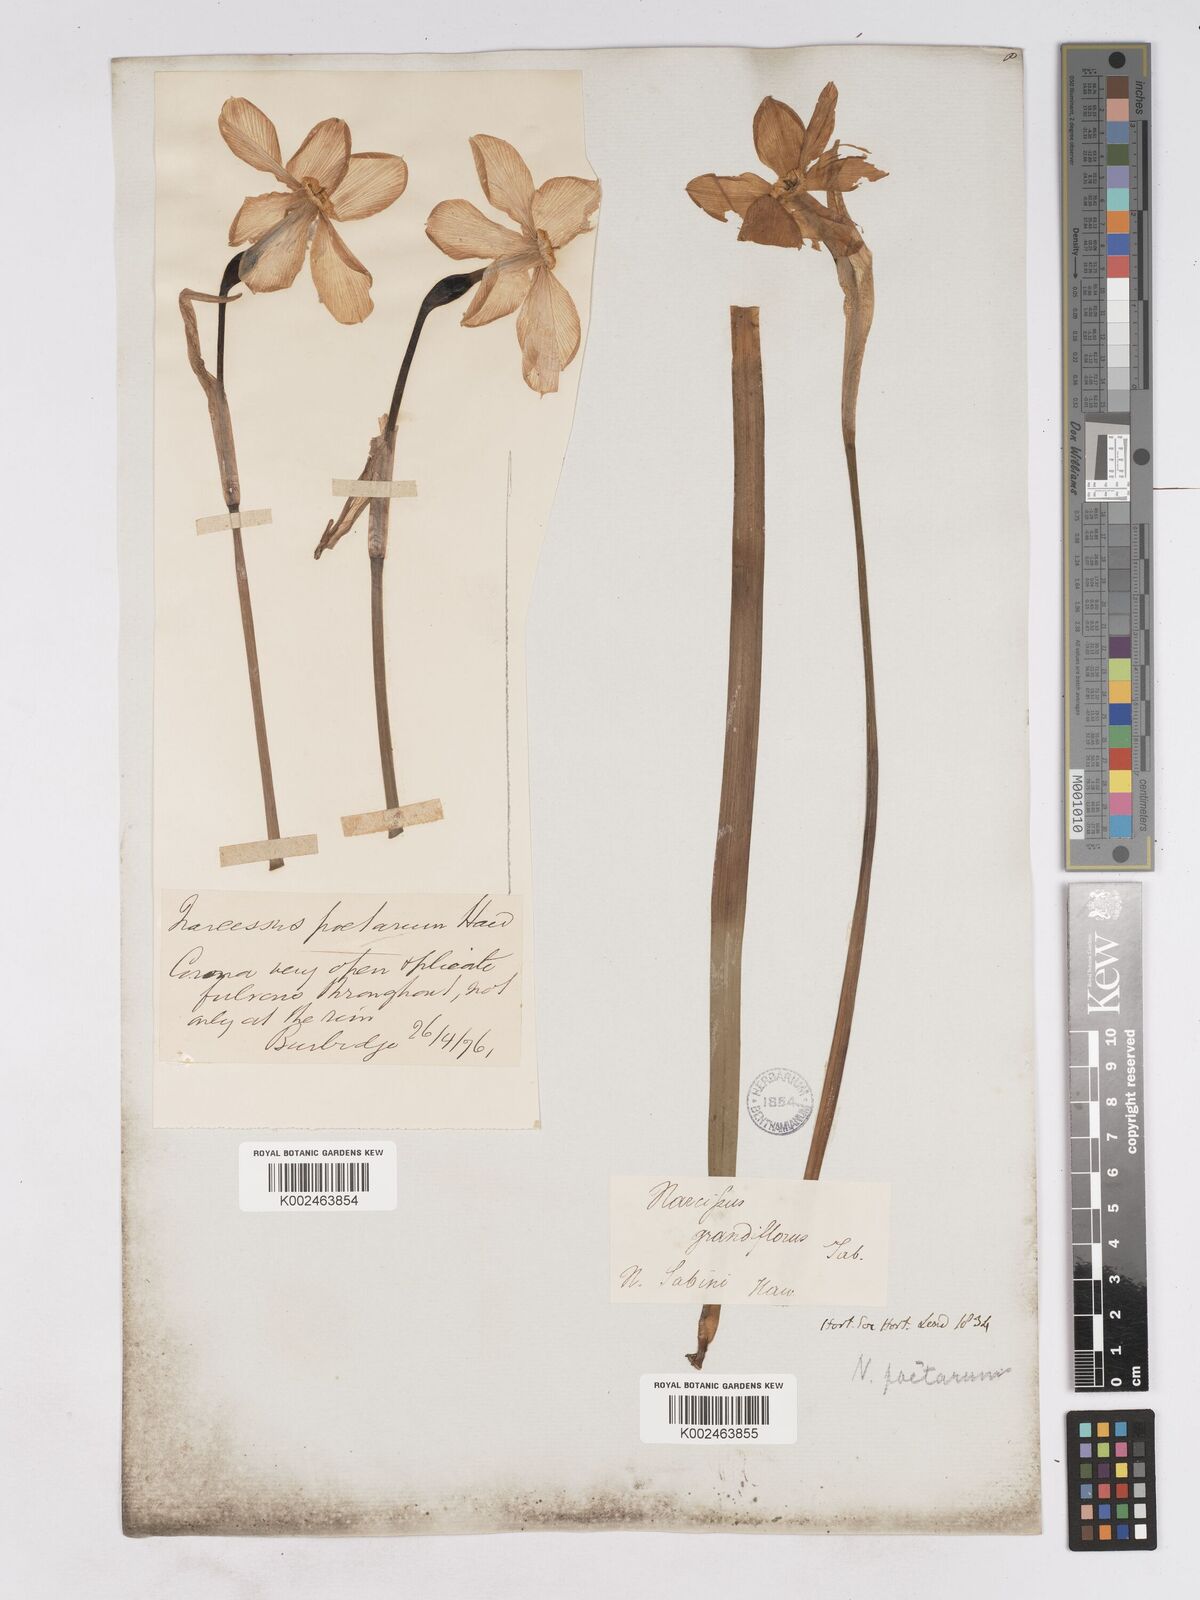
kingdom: Plantae
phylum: Tracheophyta
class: Liliopsida
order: Asparagales
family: Amaryllidaceae
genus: Narcissus
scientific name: Narcissus poeticus
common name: Pheasant's-eye daffodil
